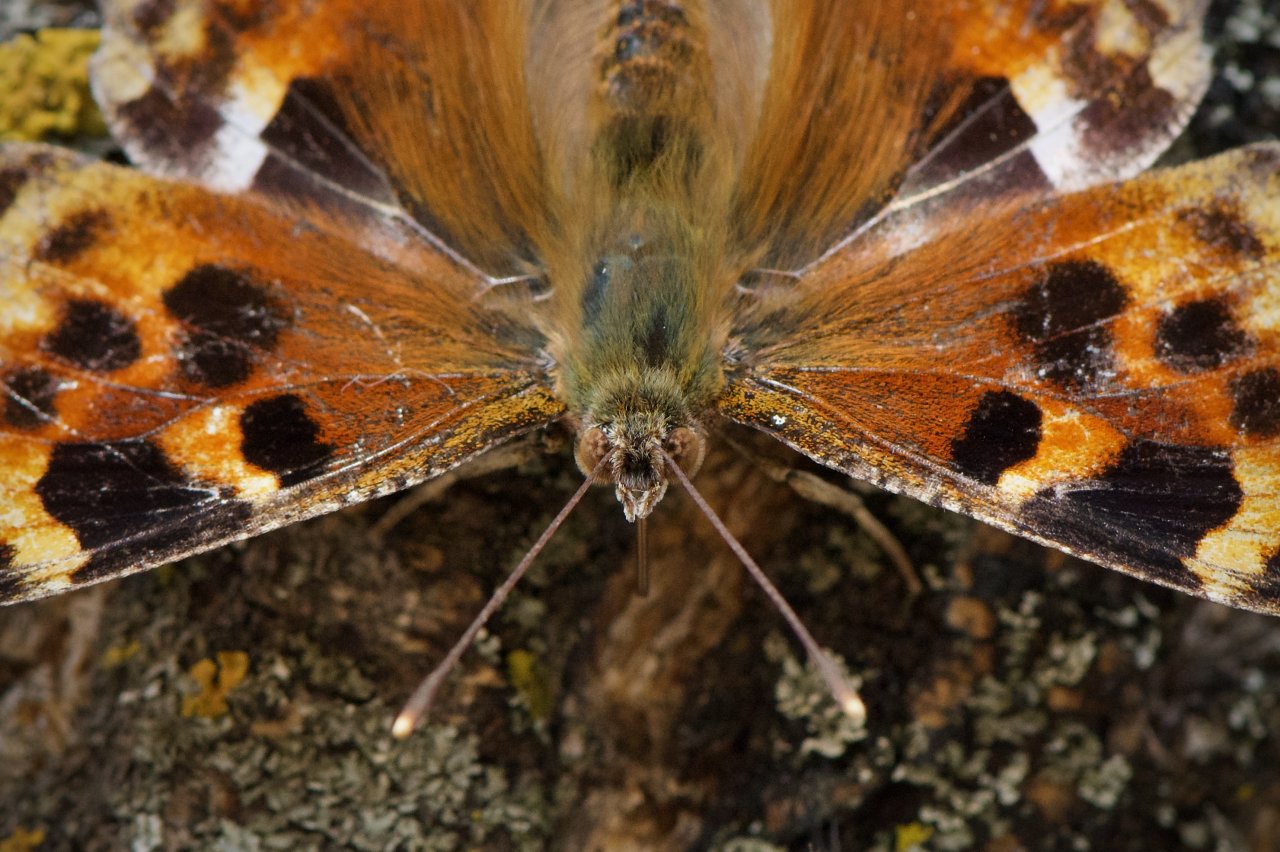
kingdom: Animalia
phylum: Arthropoda
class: Insecta
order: Lepidoptera
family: Nymphalidae
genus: Polygonia
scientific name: Polygonia vaualbum
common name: Compton Tortoiseshell
